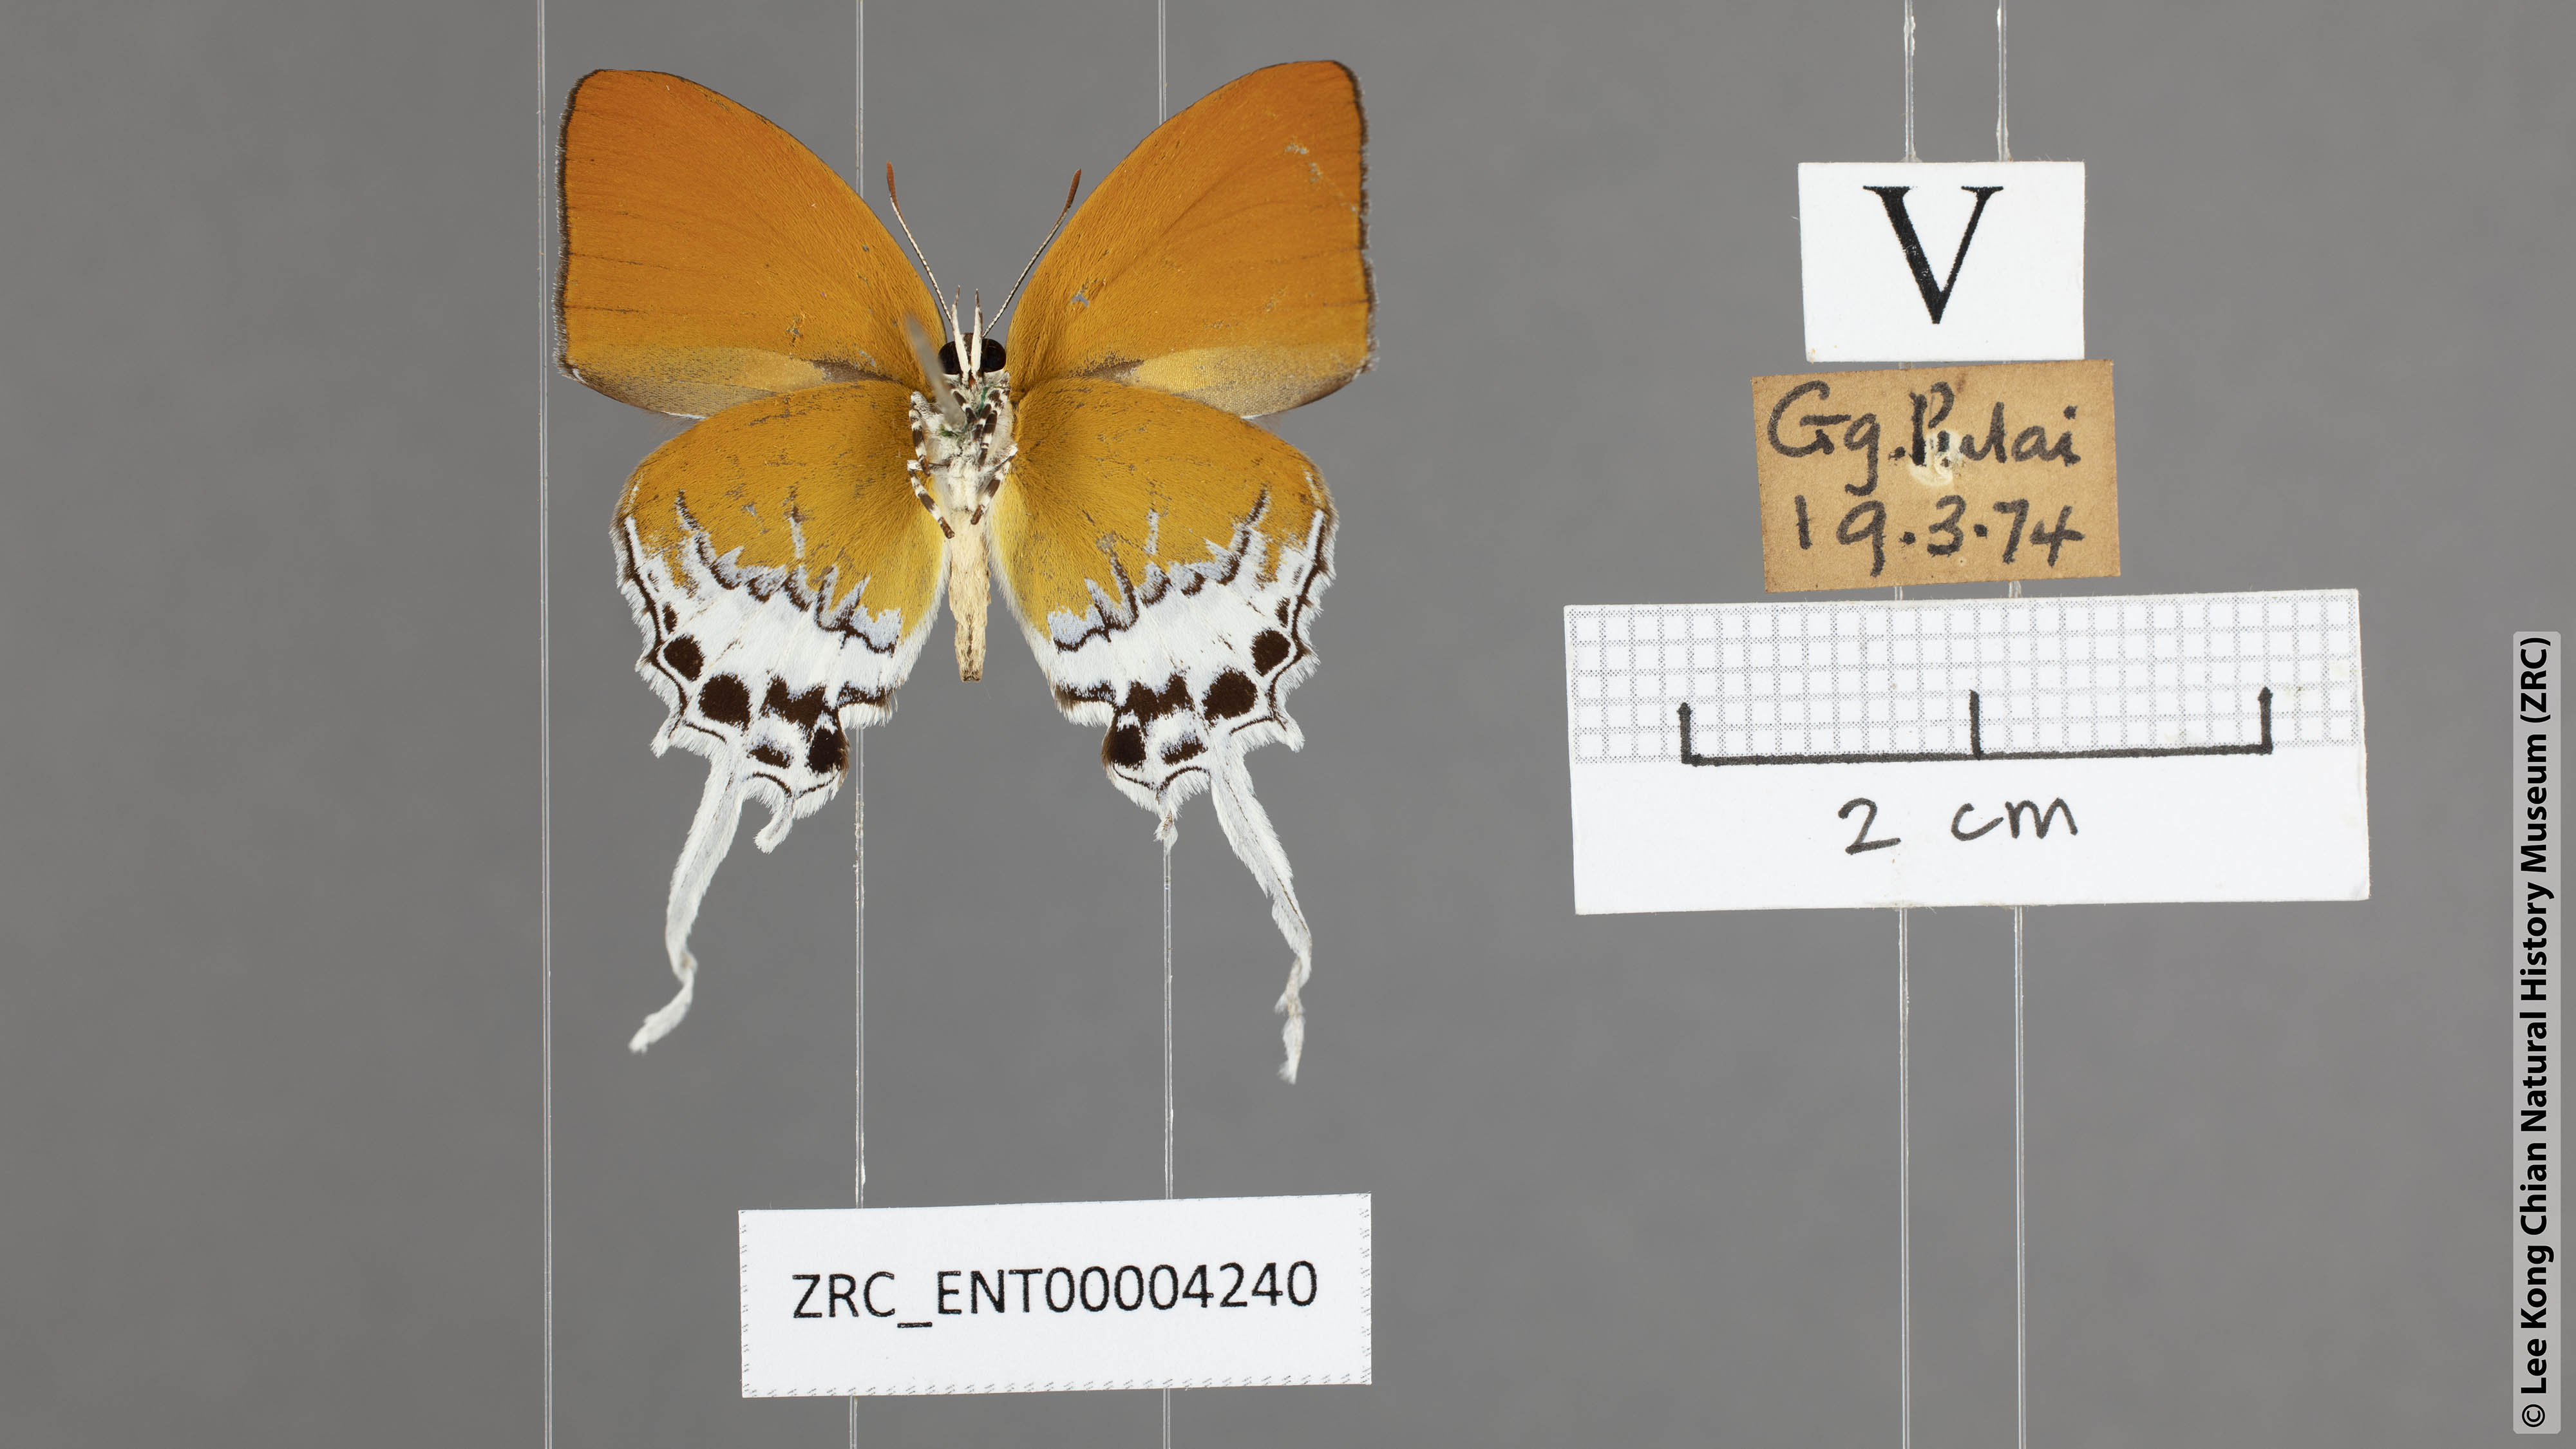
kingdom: Animalia
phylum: Arthropoda
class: Insecta
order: Lepidoptera
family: Lycaenidae
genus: Eooxylides
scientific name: Eooxylides tharis
